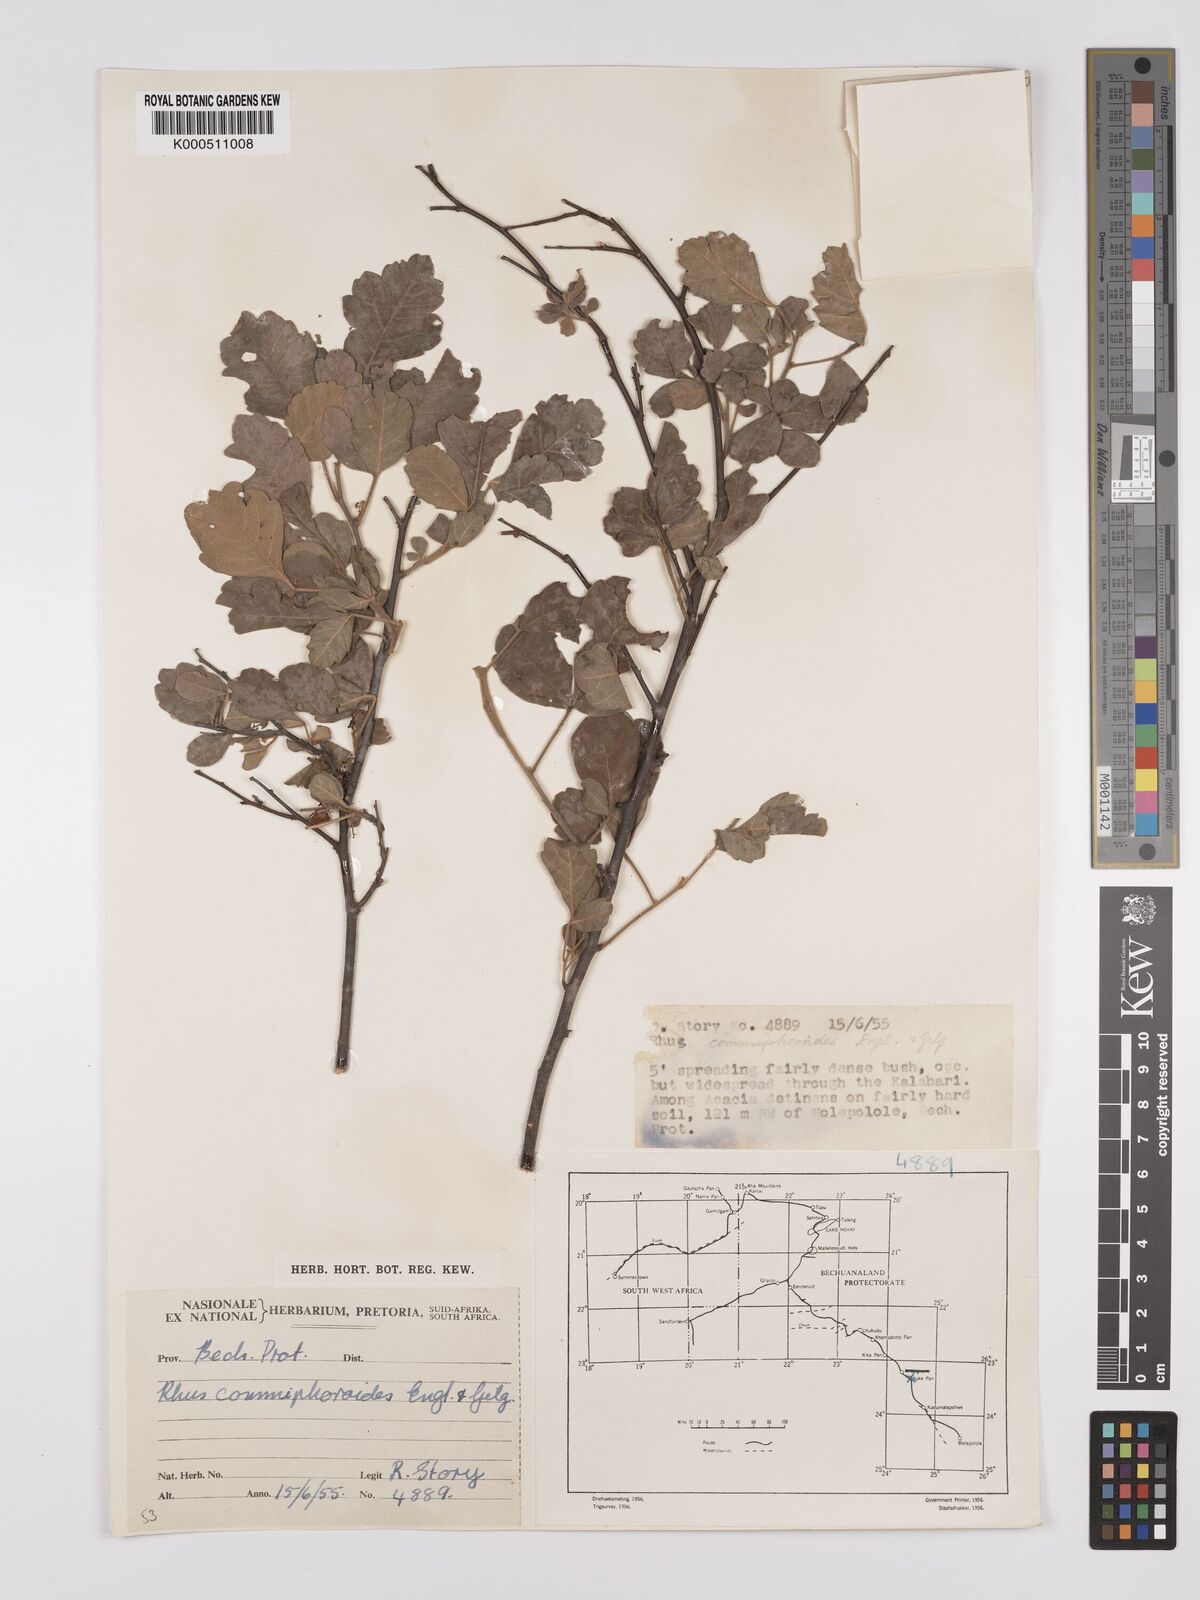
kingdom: Plantae
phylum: Tracheophyta
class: Magnoliopsida
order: Sapindales
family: Anacardiaceae
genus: Searsia
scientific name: Searsia tenuinervis
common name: Hyaena taaibos
